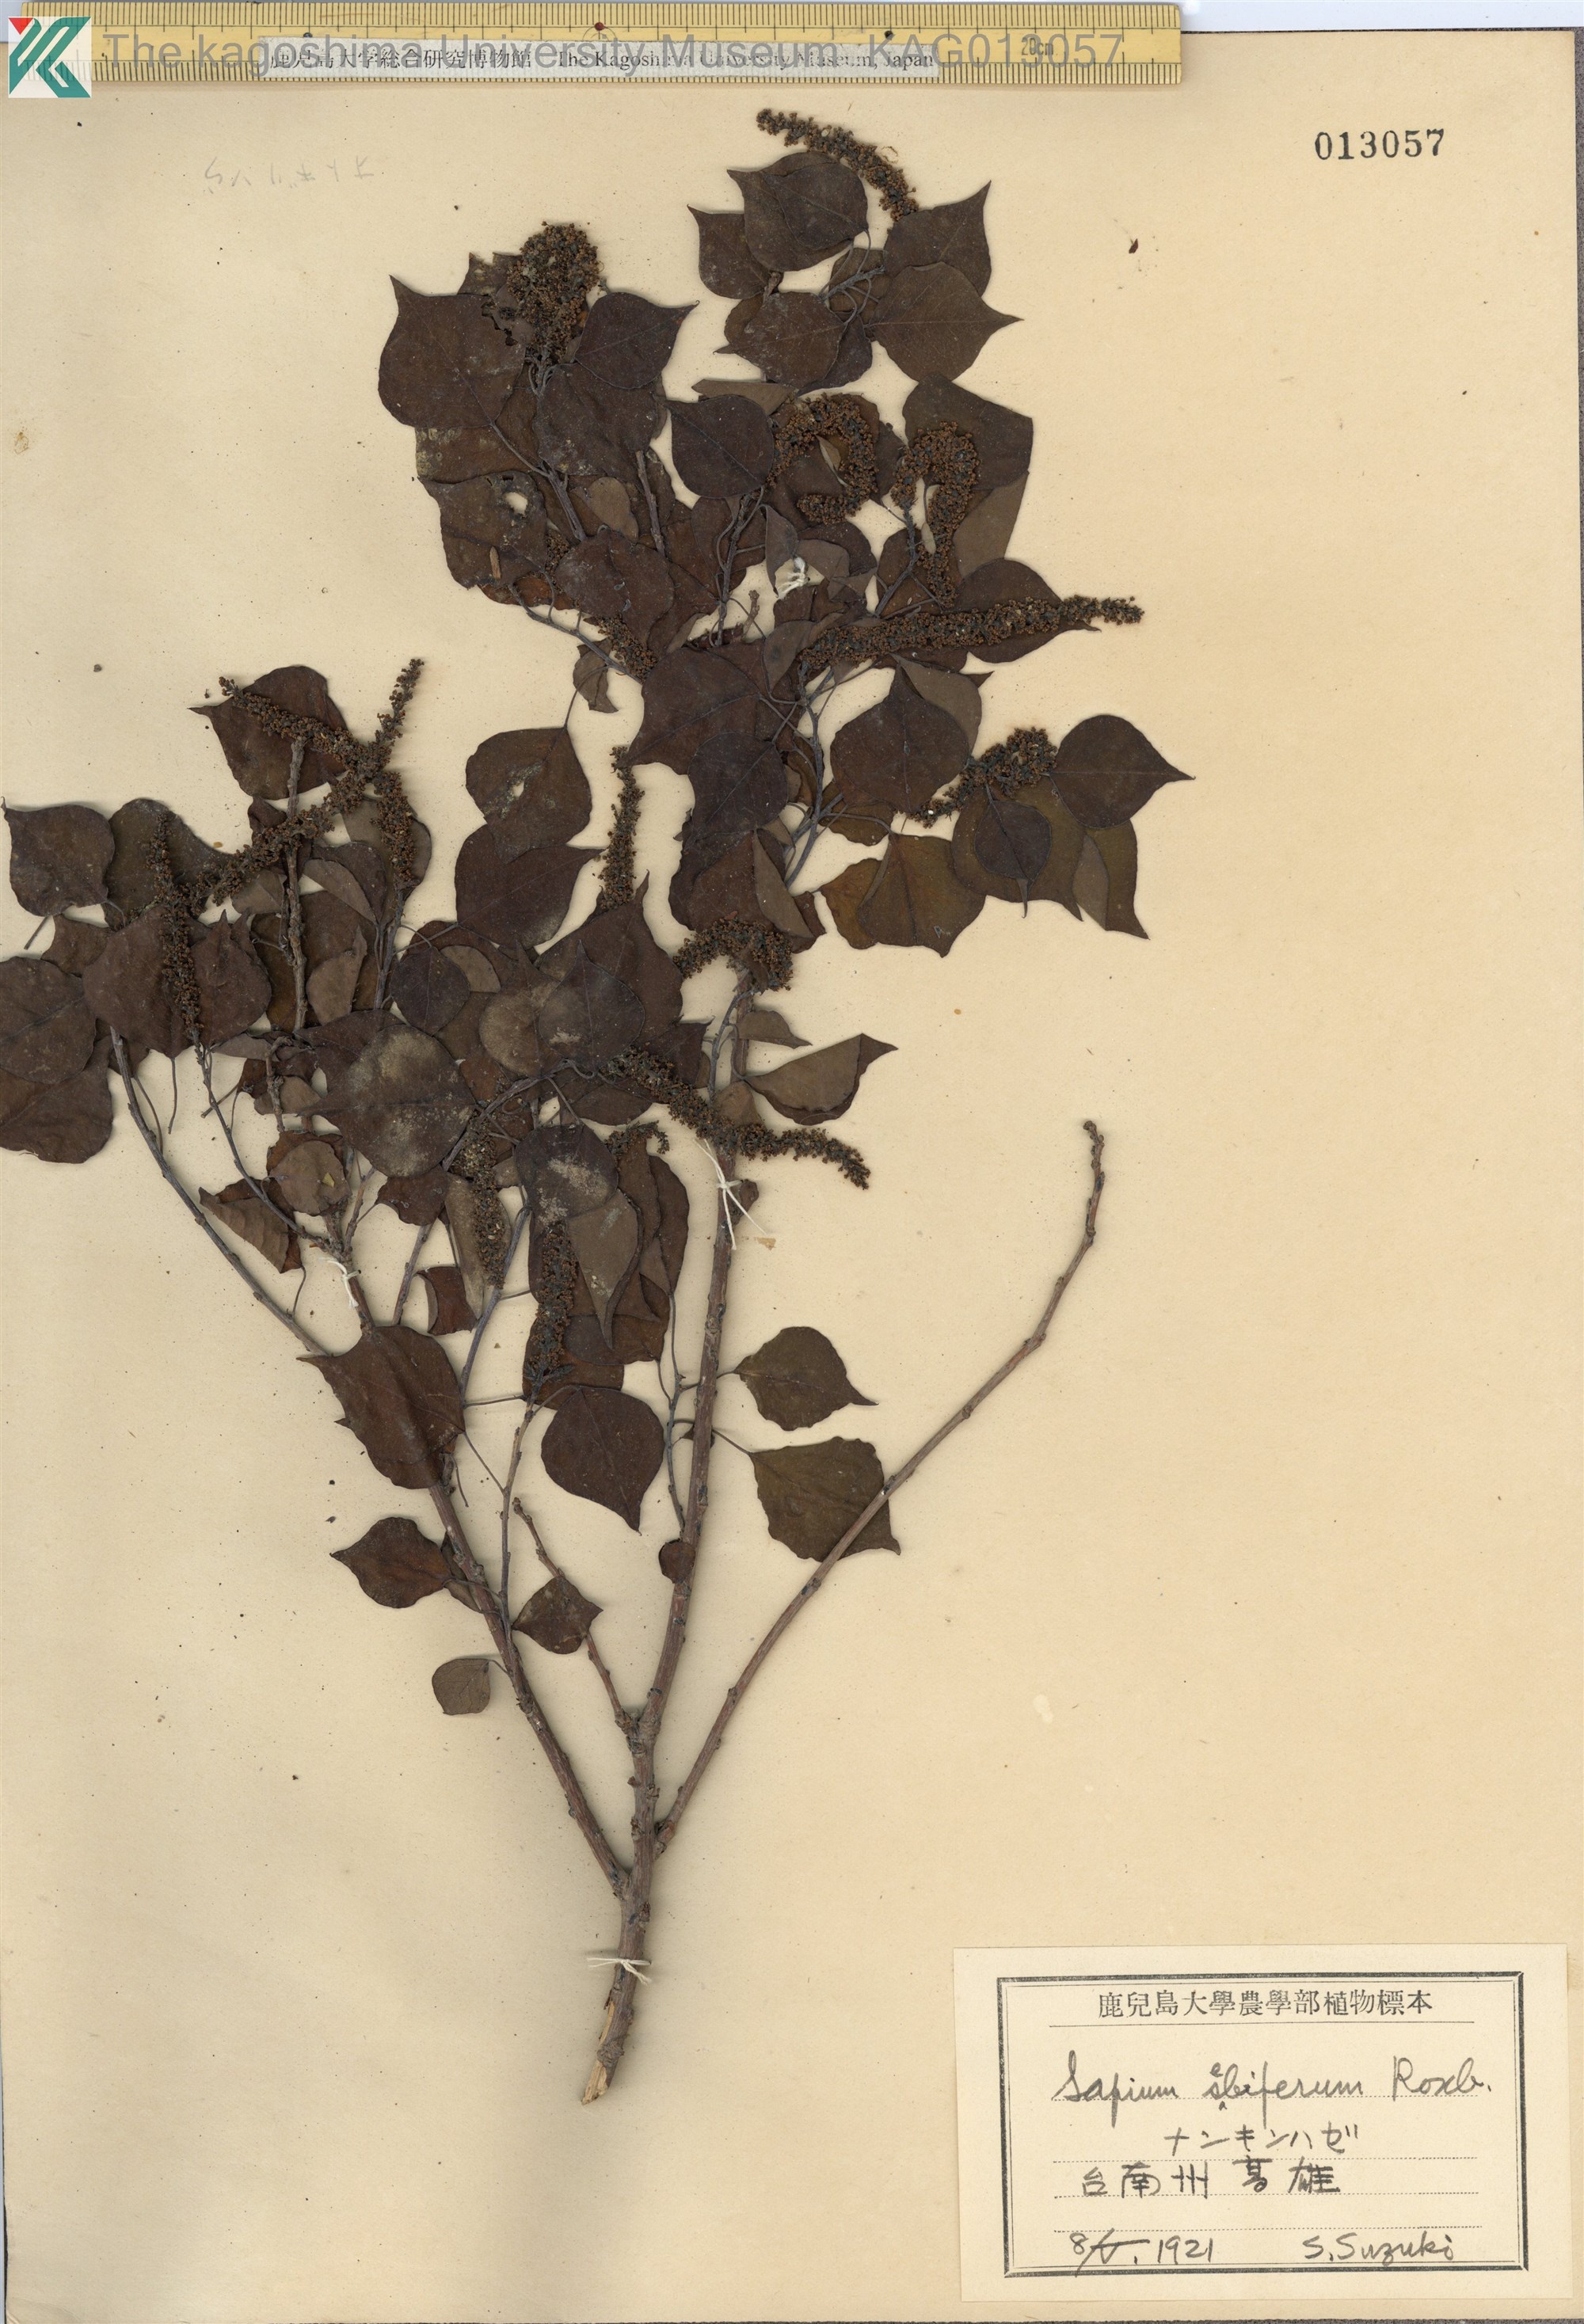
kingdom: Plantae
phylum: Tracheophyta
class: Magnoliopsida
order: Malpighiales
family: Euphorbiaceae
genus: Triadica
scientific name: Triadica sebifera
